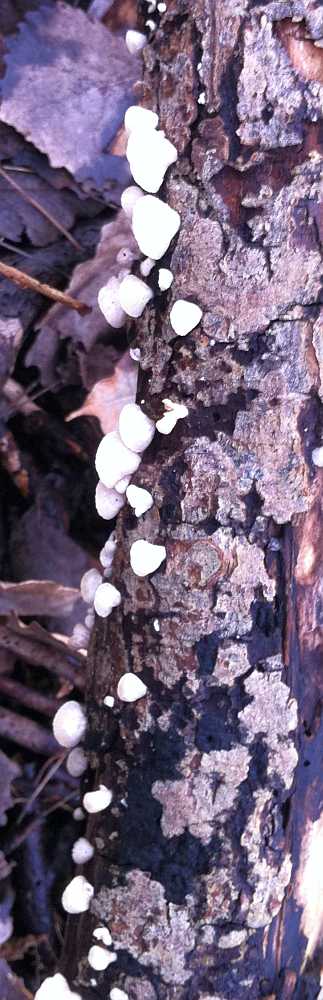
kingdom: Fungi
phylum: Basidiomycota
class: Agaricomycetes
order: Agaricales
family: Crepidotaceae
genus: Crepidotus
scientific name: Crepidotus cesatii
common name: almindelig muslingesvamp
